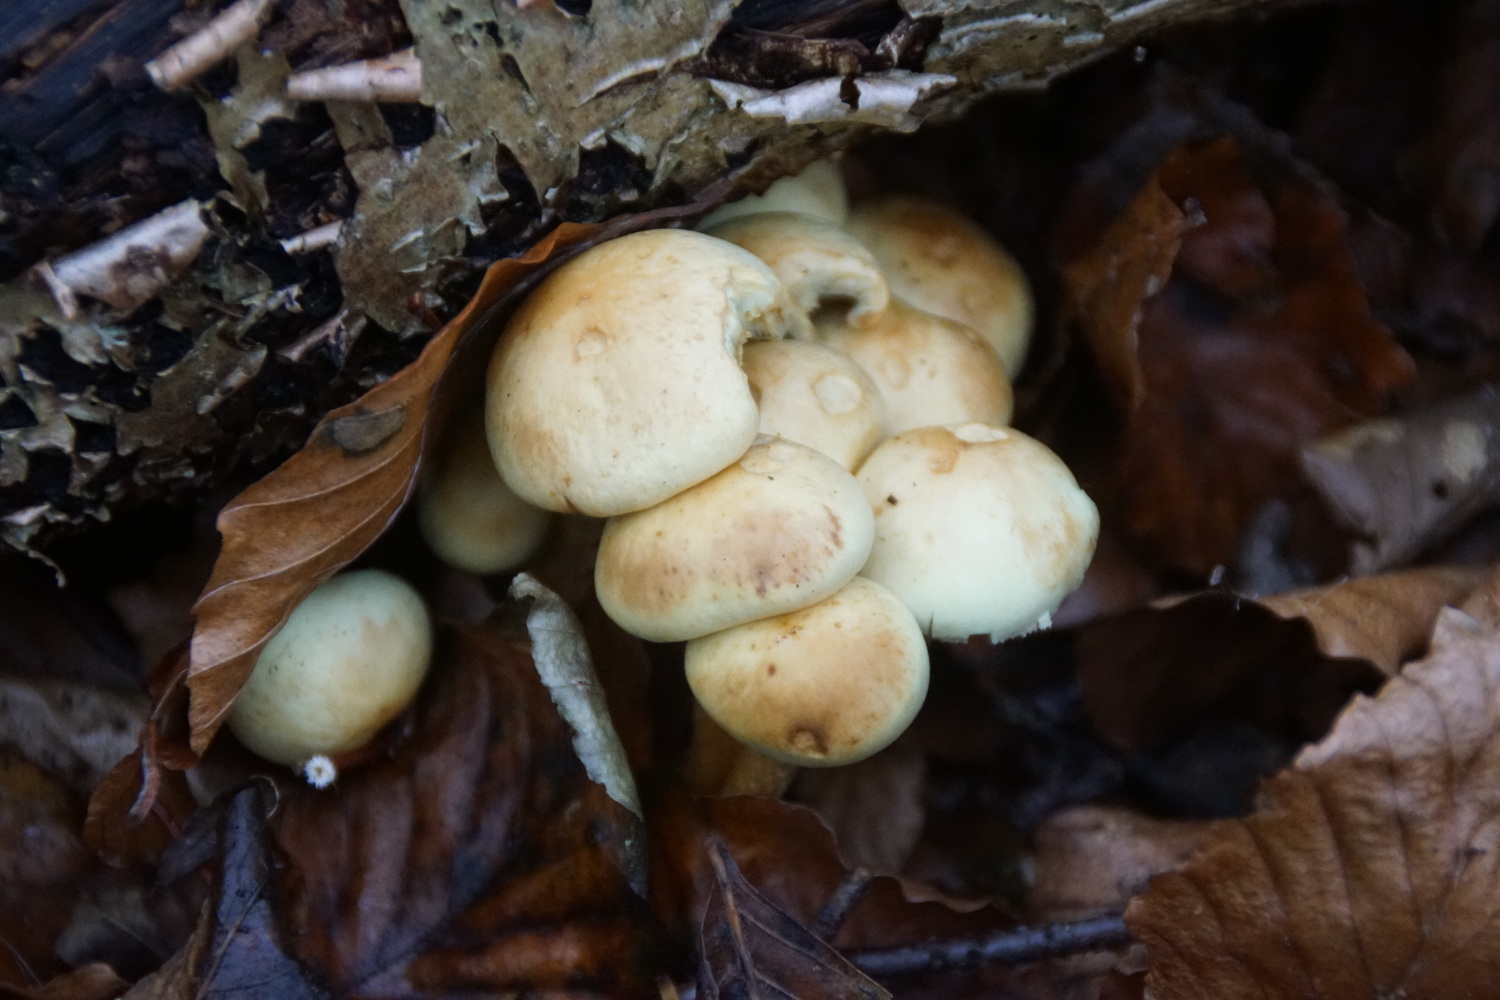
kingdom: Fungi
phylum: Basidiomycota
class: Agaricomycetes
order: Agaricales
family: Strophariaceae
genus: Hypholoma
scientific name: Hypholoma fasciculare
